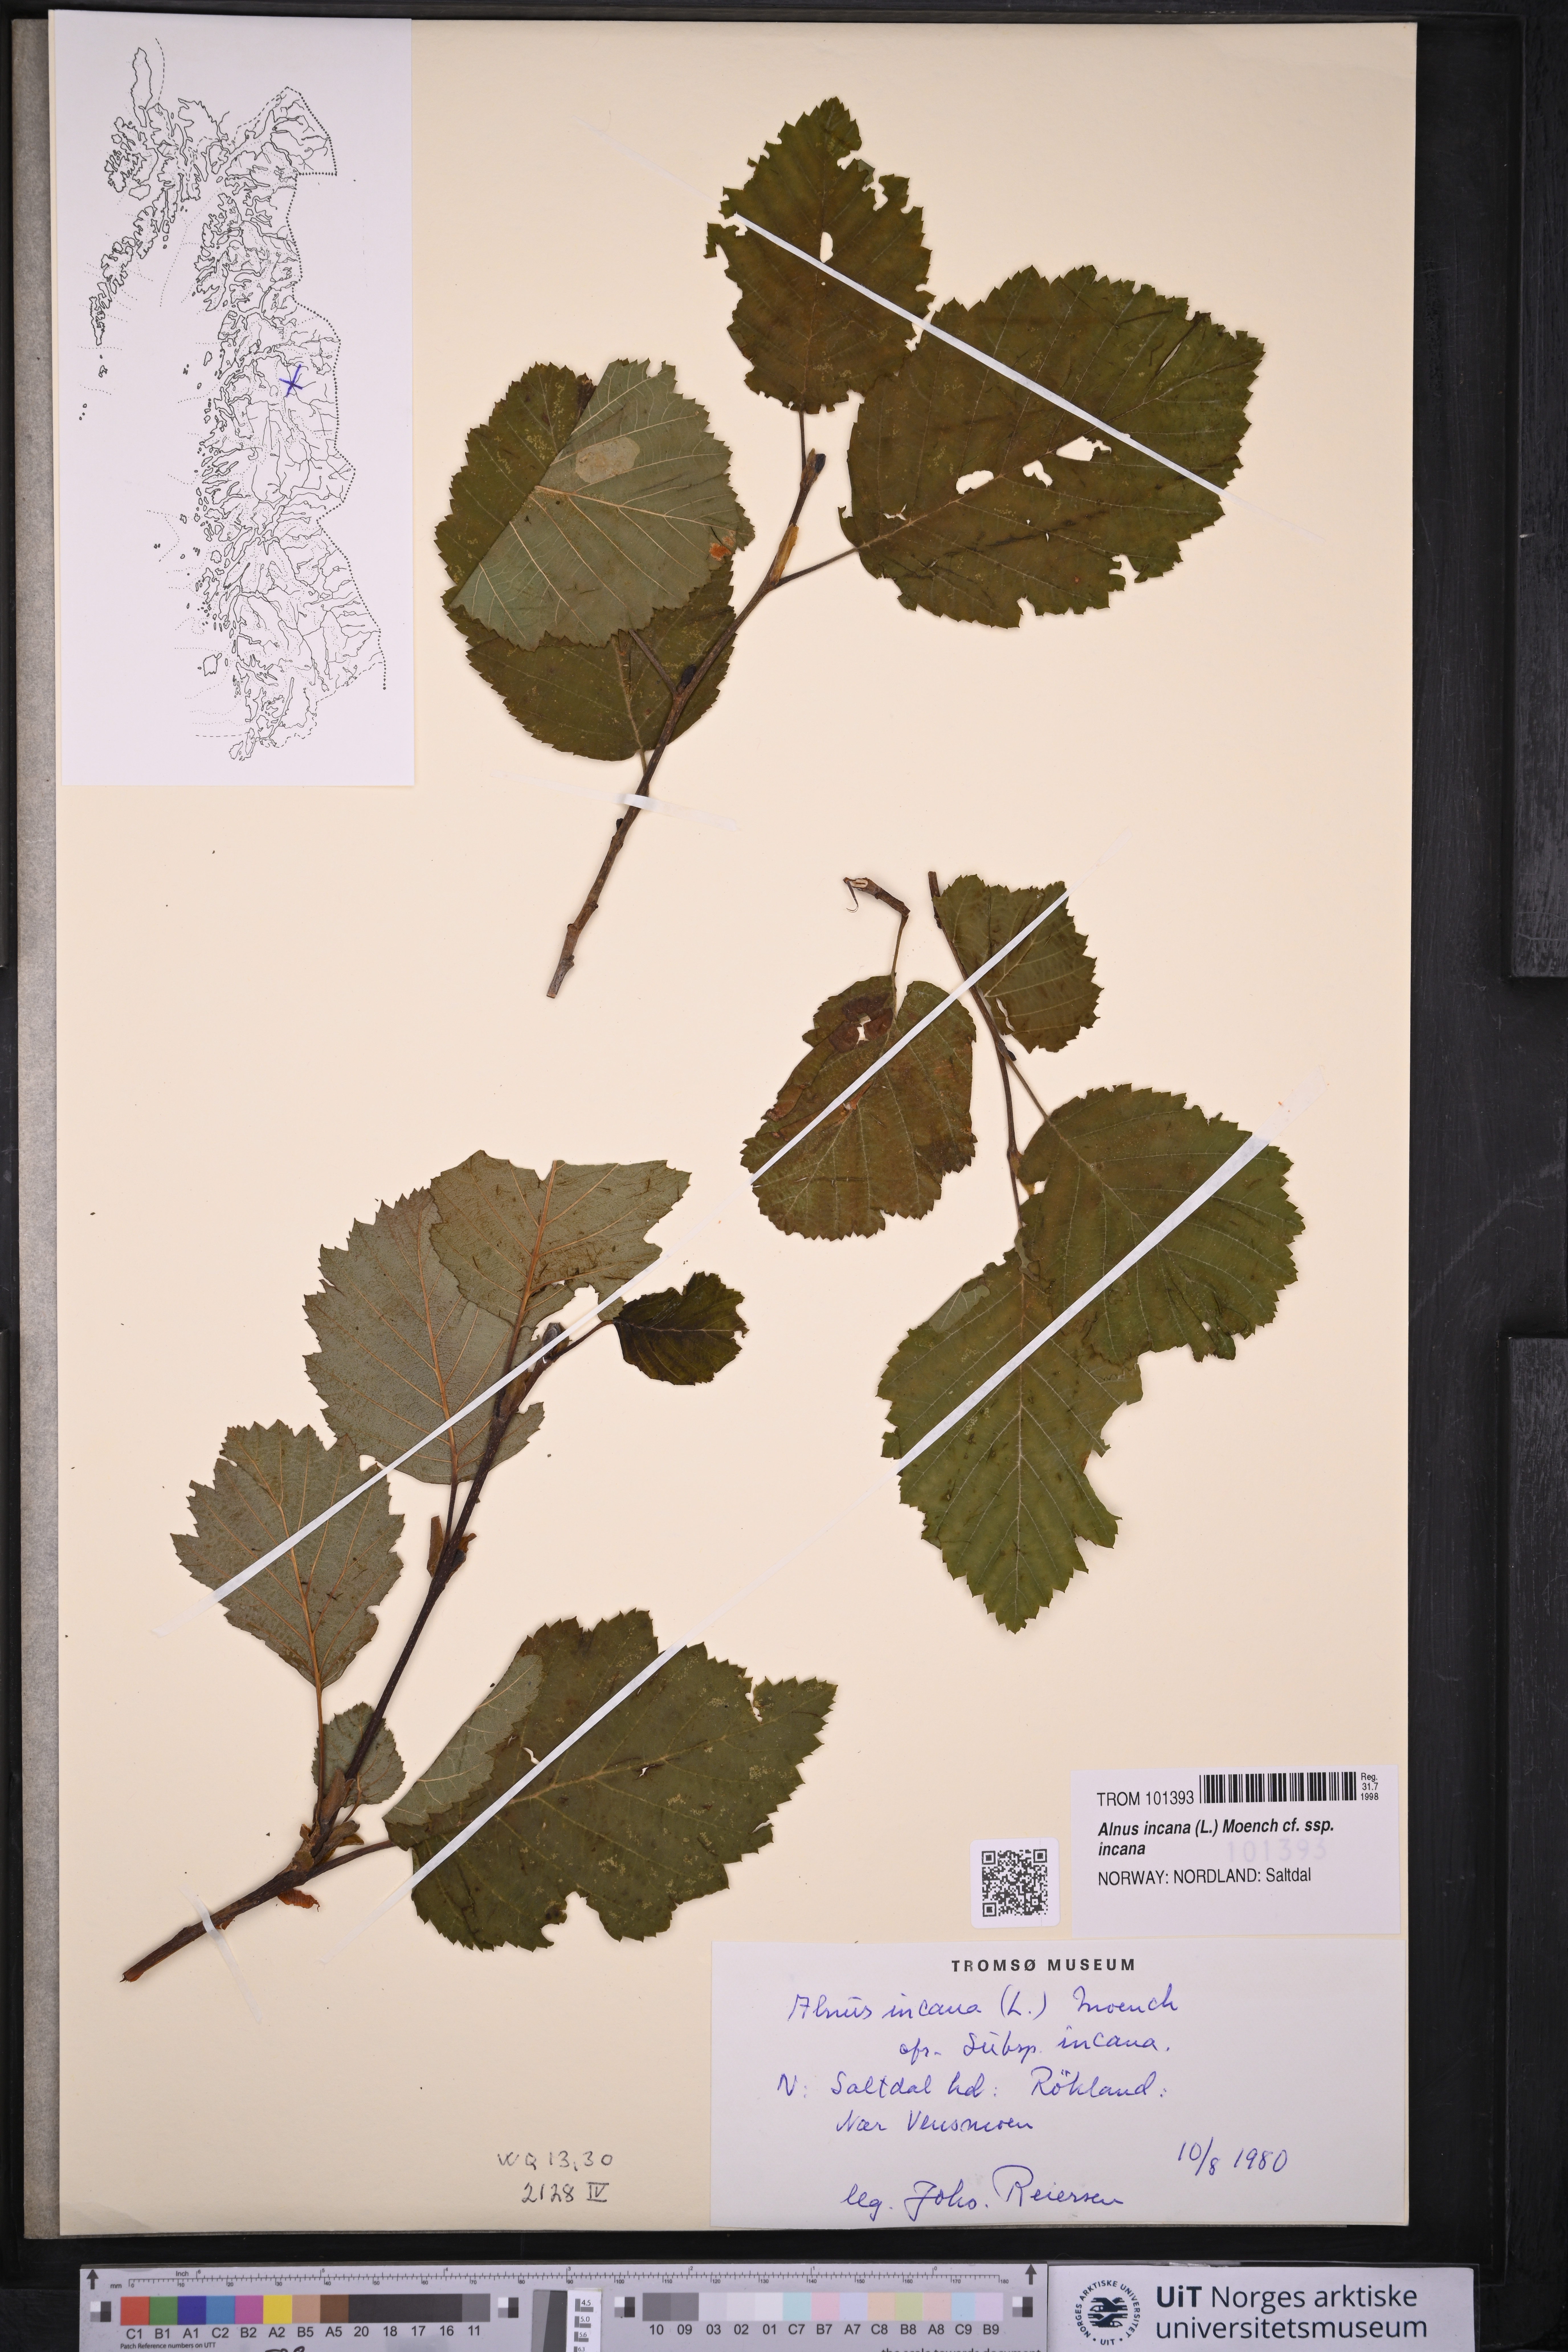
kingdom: Plantae
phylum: Tracheophyta
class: Magnoliopsida
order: Fagales
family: Betulaceae
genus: Alnus
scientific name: Alnus incana
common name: Grey alder
